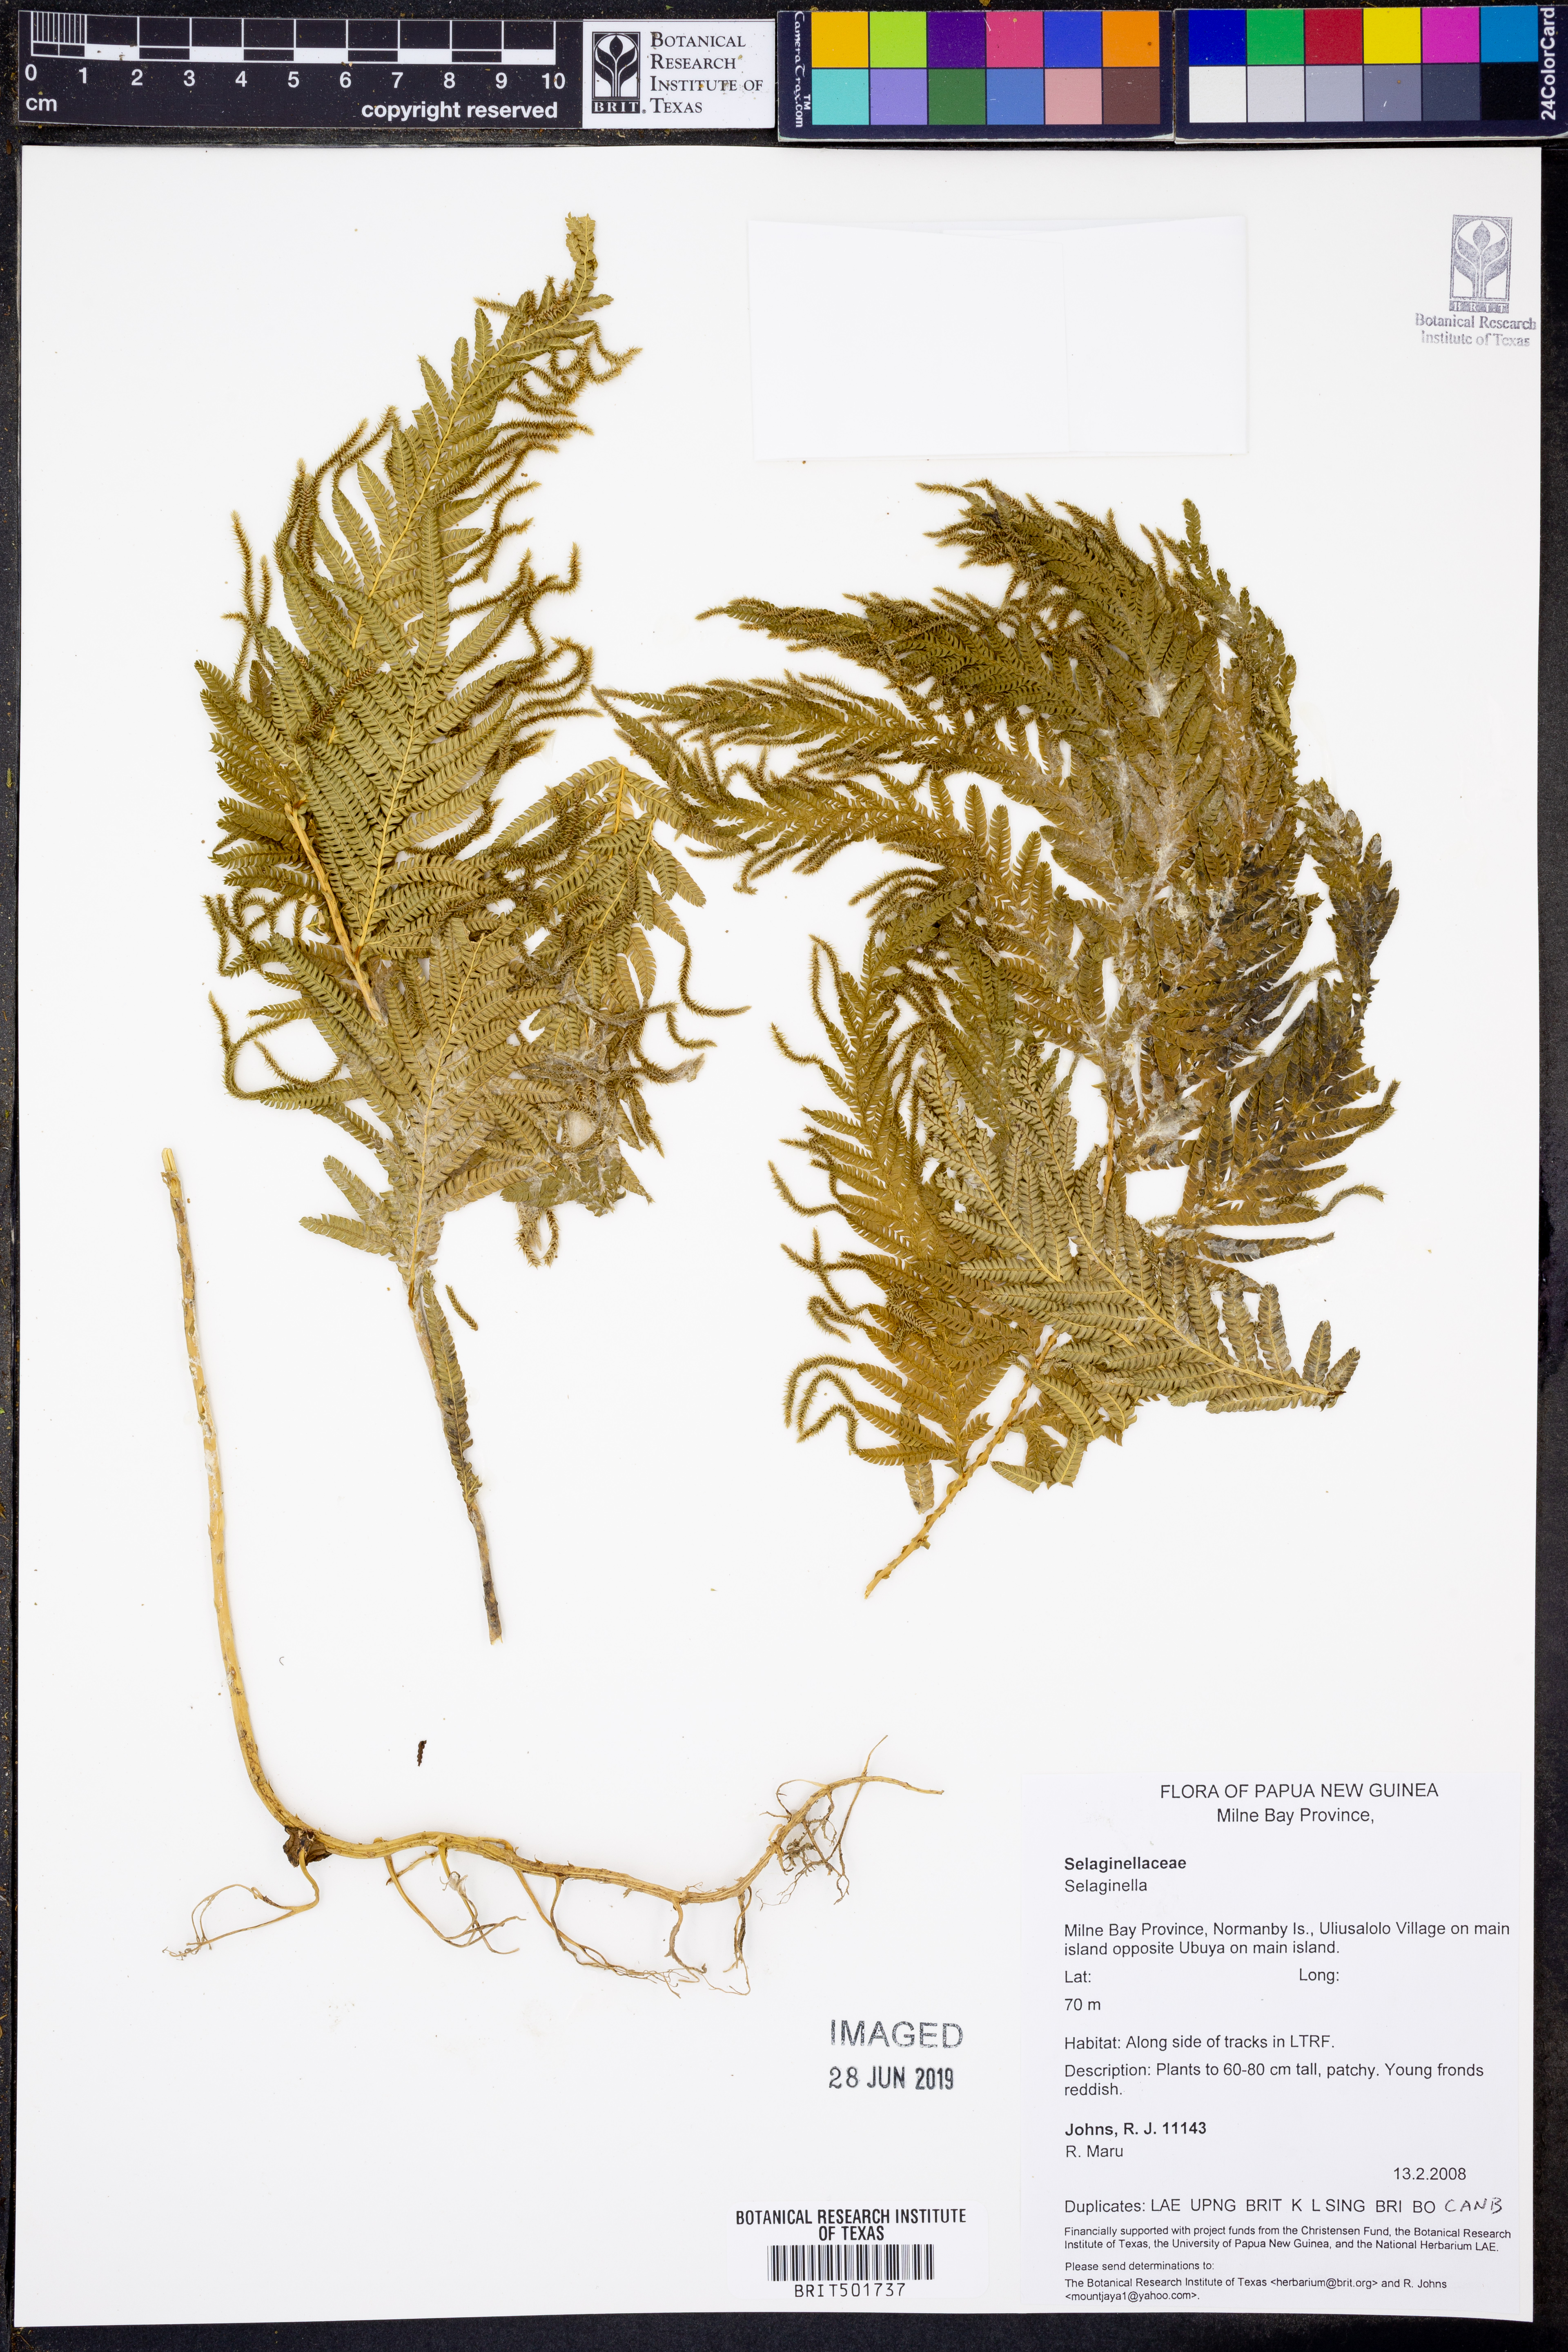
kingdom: Plantae
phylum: Tracheophyta
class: Lycopodiopsida
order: Selaginellales
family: Selaginellaceae
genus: Selaginella
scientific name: Selaginella
